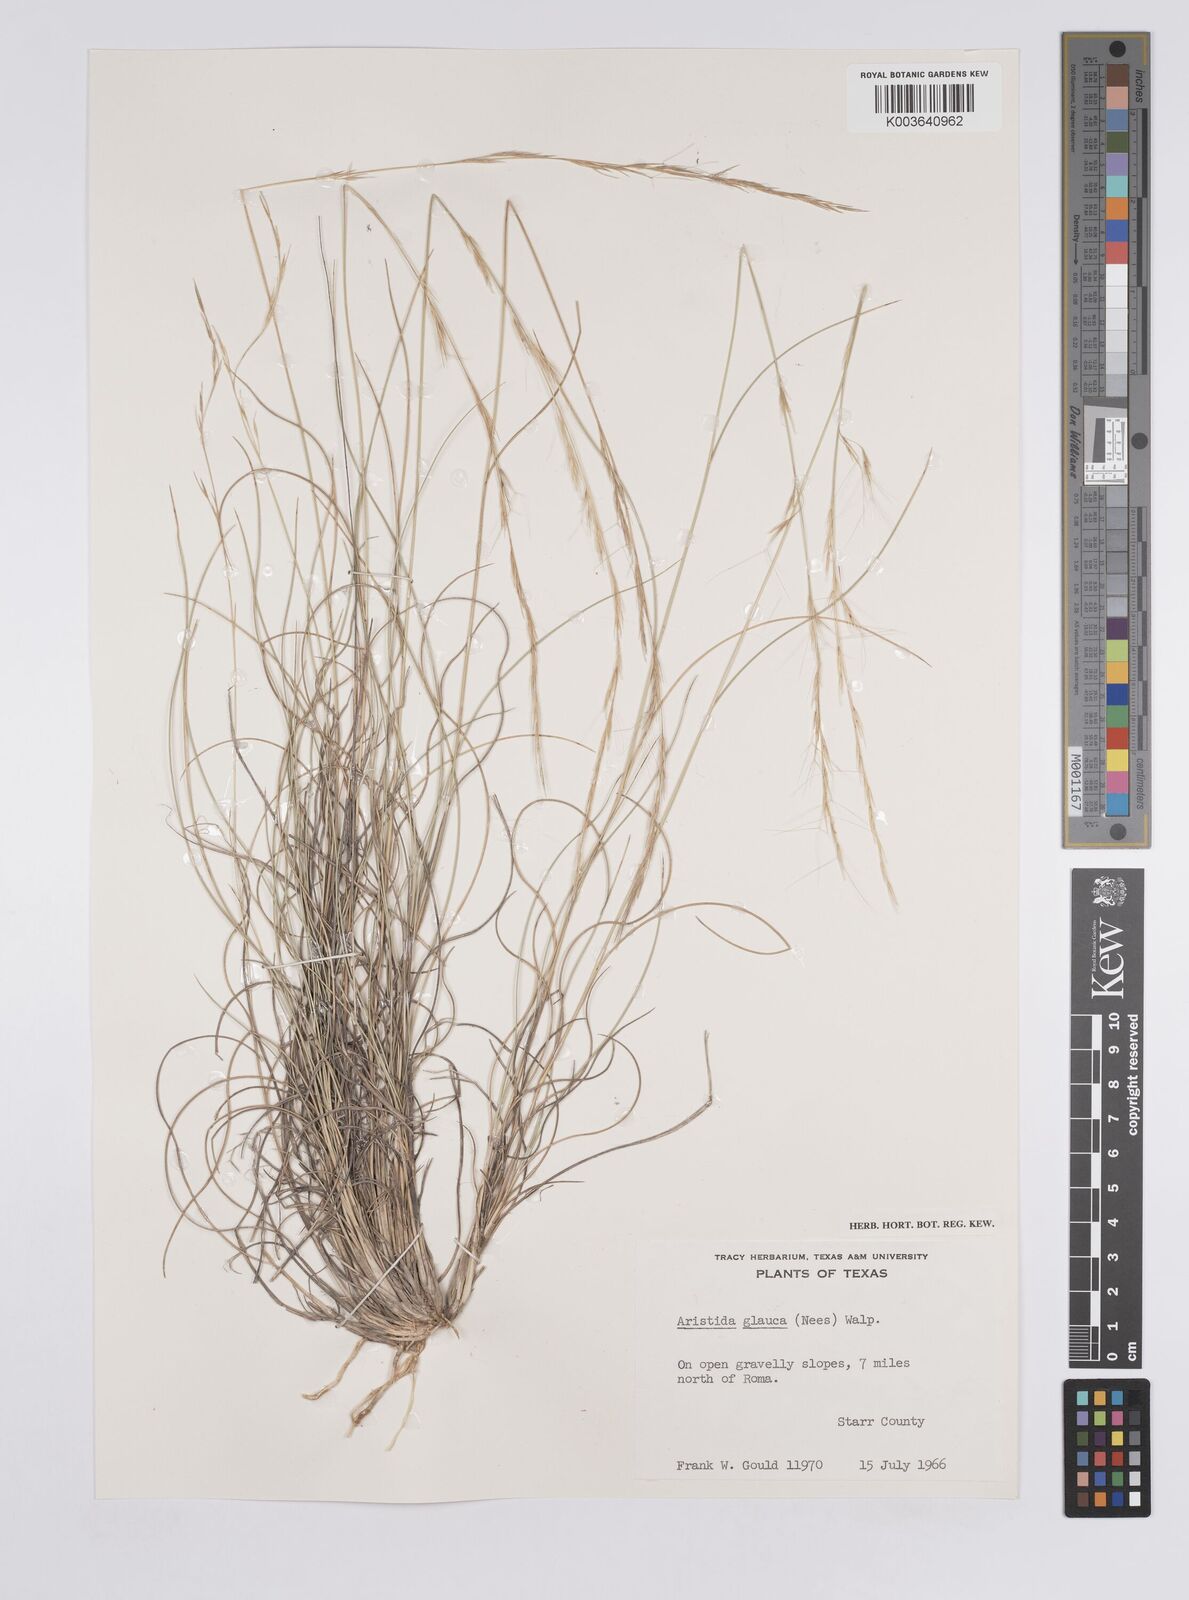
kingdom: Plantae
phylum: Tracheophyta
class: Liliopsida
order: Poales
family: Poaceae
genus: Aristida
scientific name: Aristida purpurea
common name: Purple threeawn
